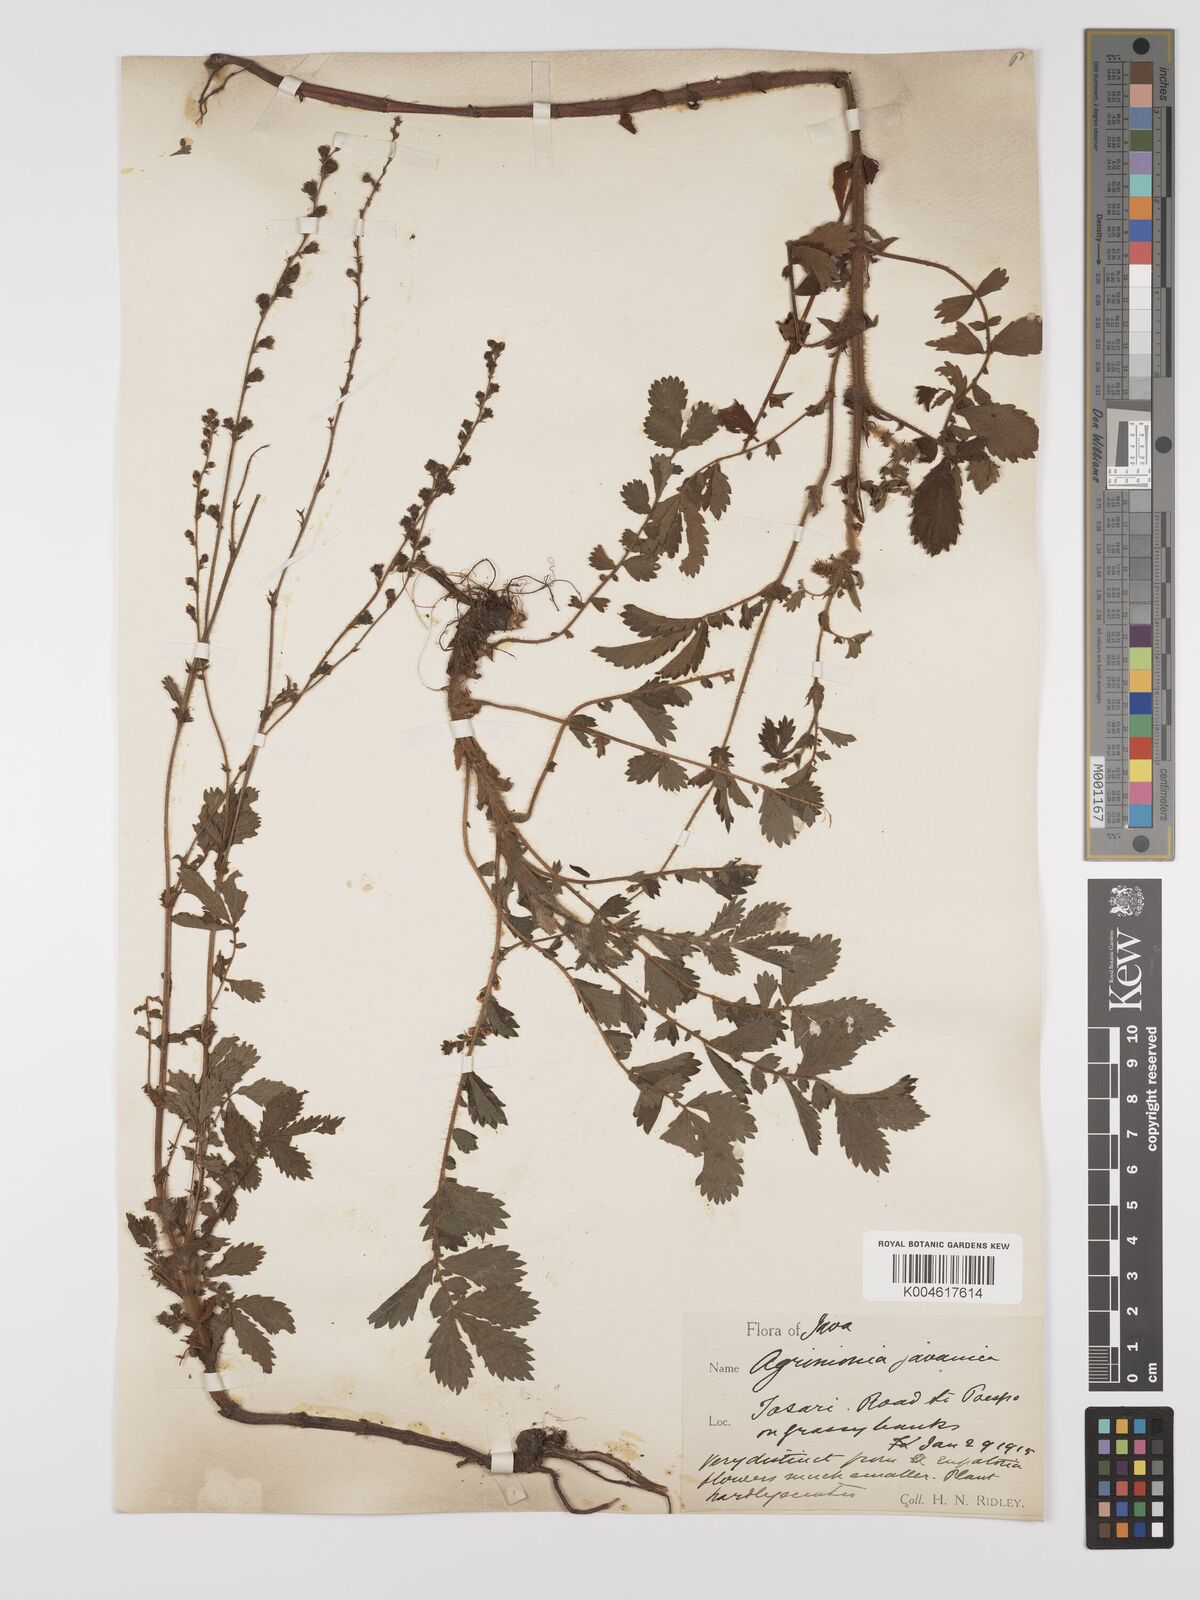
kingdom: Plantae
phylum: Tracheophyta
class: Magnoliopsida
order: Rosales
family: Rosaceae
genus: Agrimonia
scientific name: Agrimonia eupatoria
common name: Agrimony
